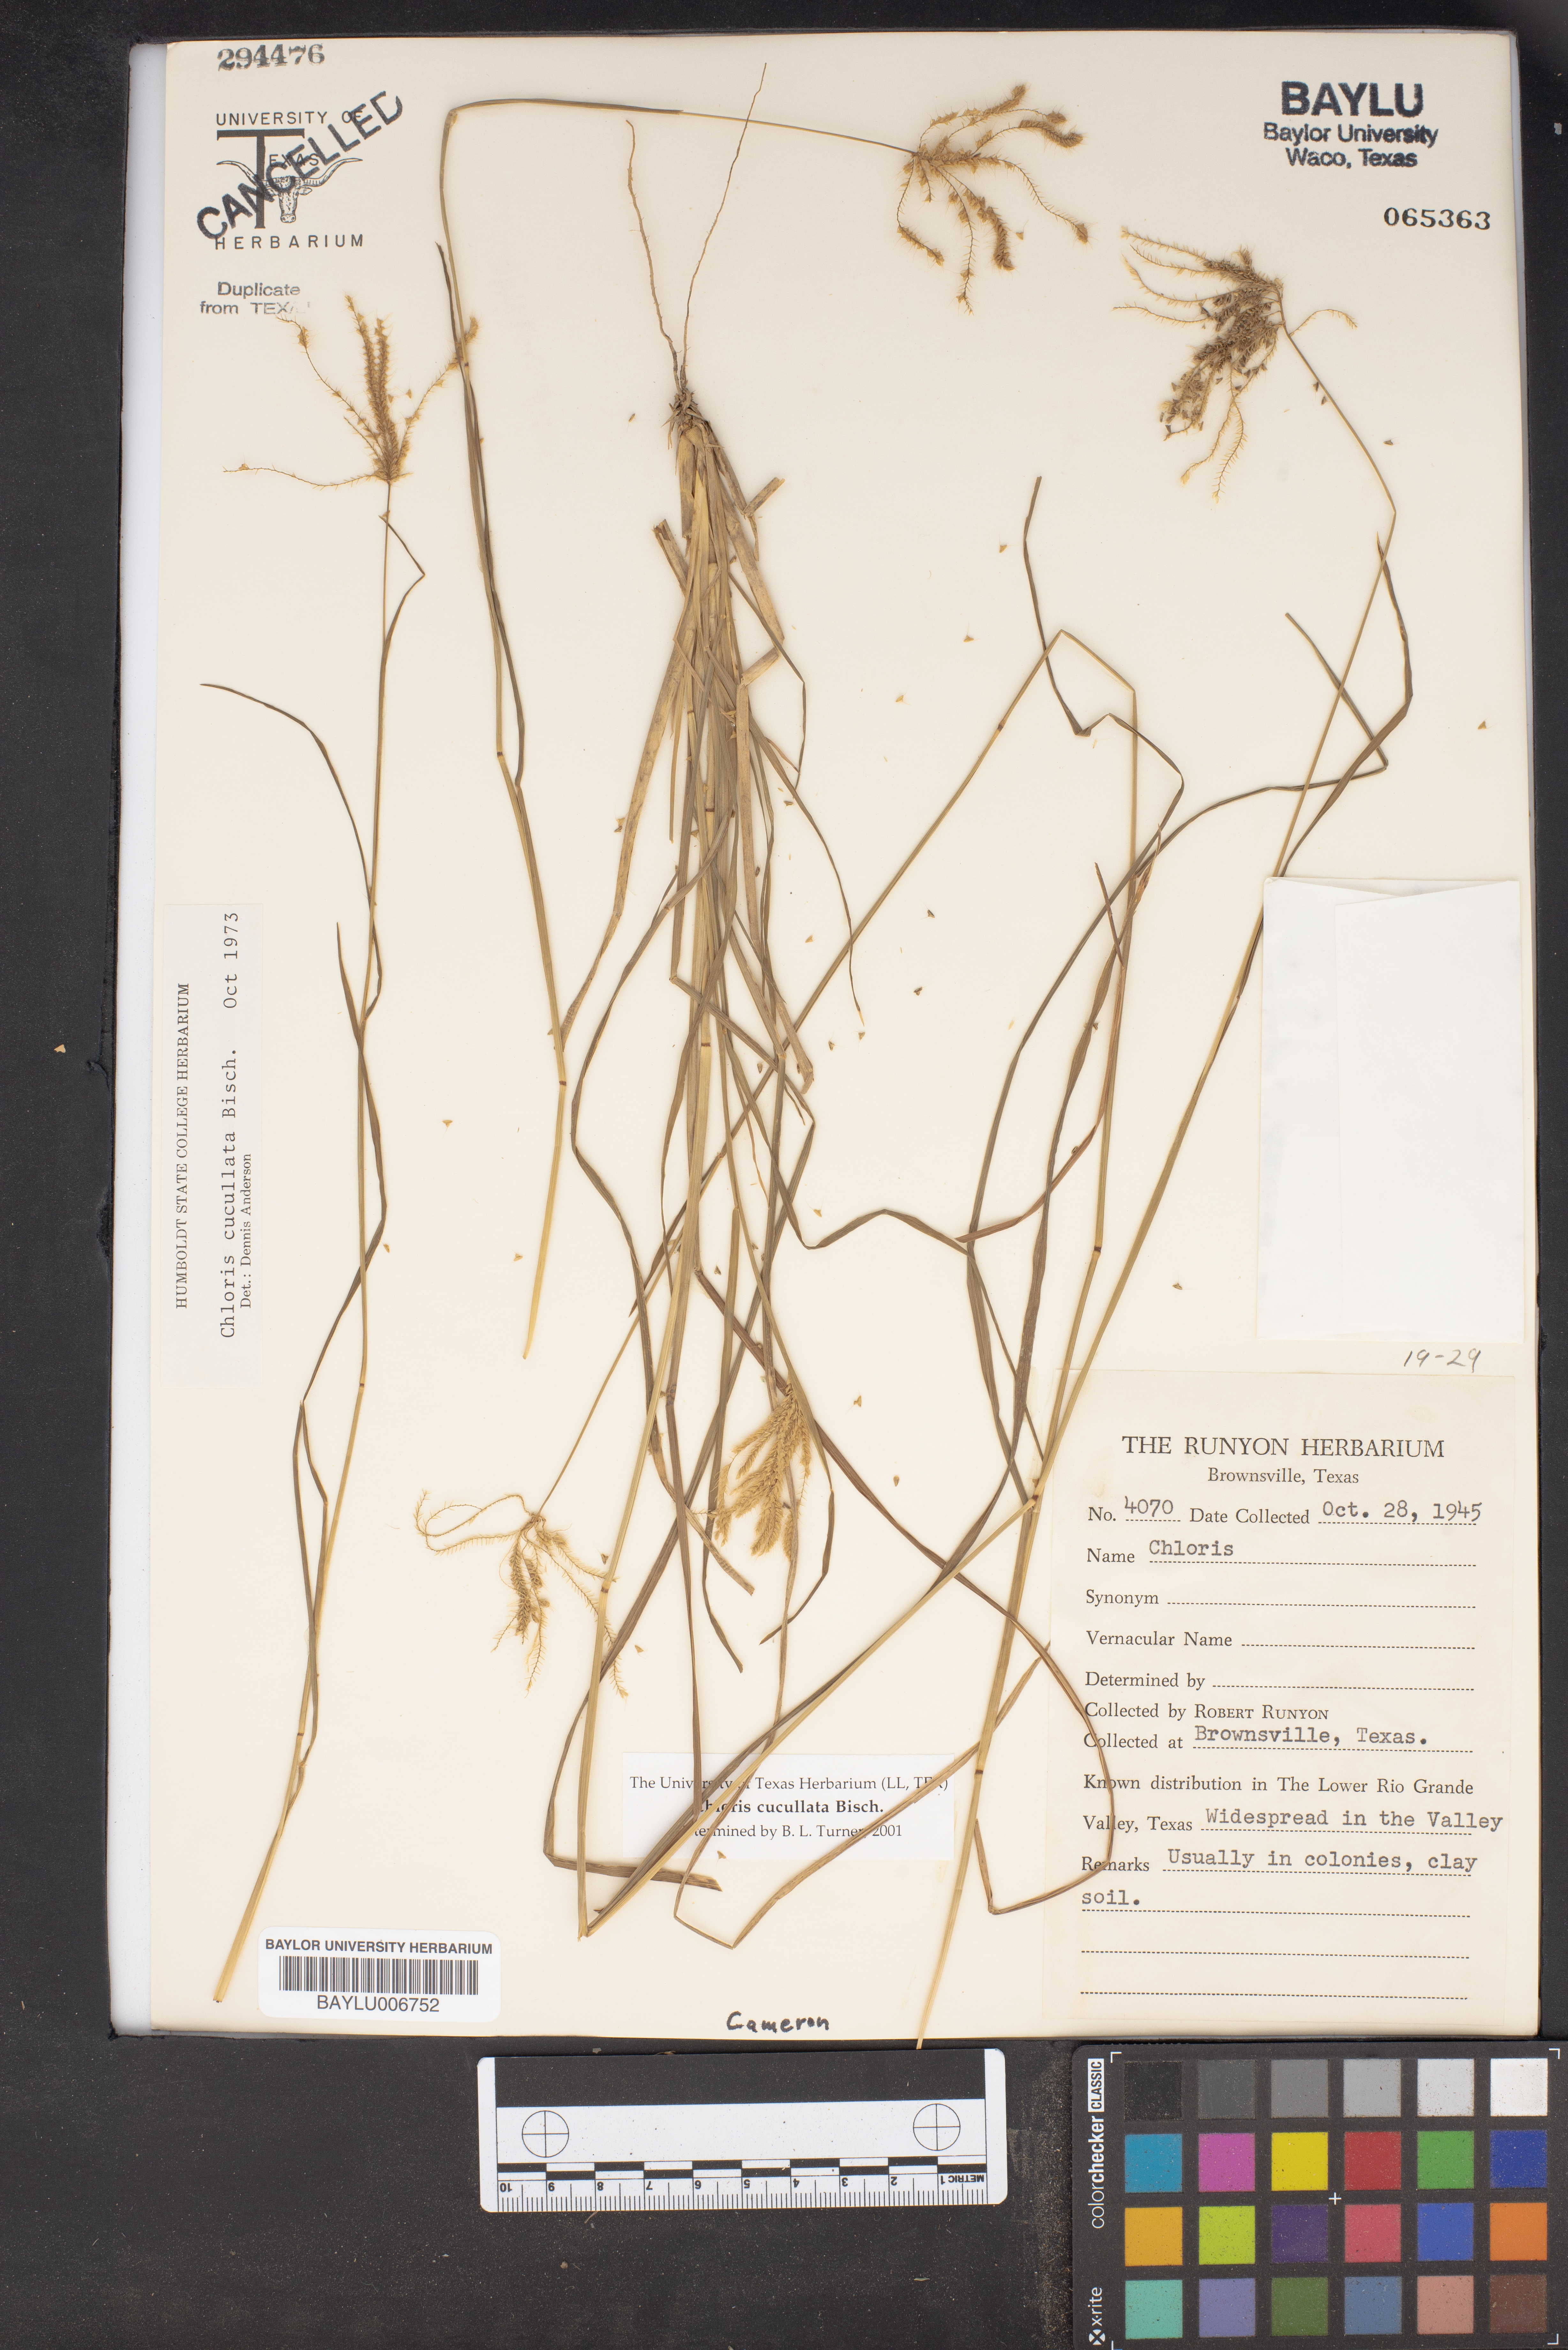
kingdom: Plantae
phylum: Tracheophyta
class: Liliopsida
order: Poales
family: Poaceae
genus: Chloris
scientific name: Chloris cucullata
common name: Hooded windmill grass
